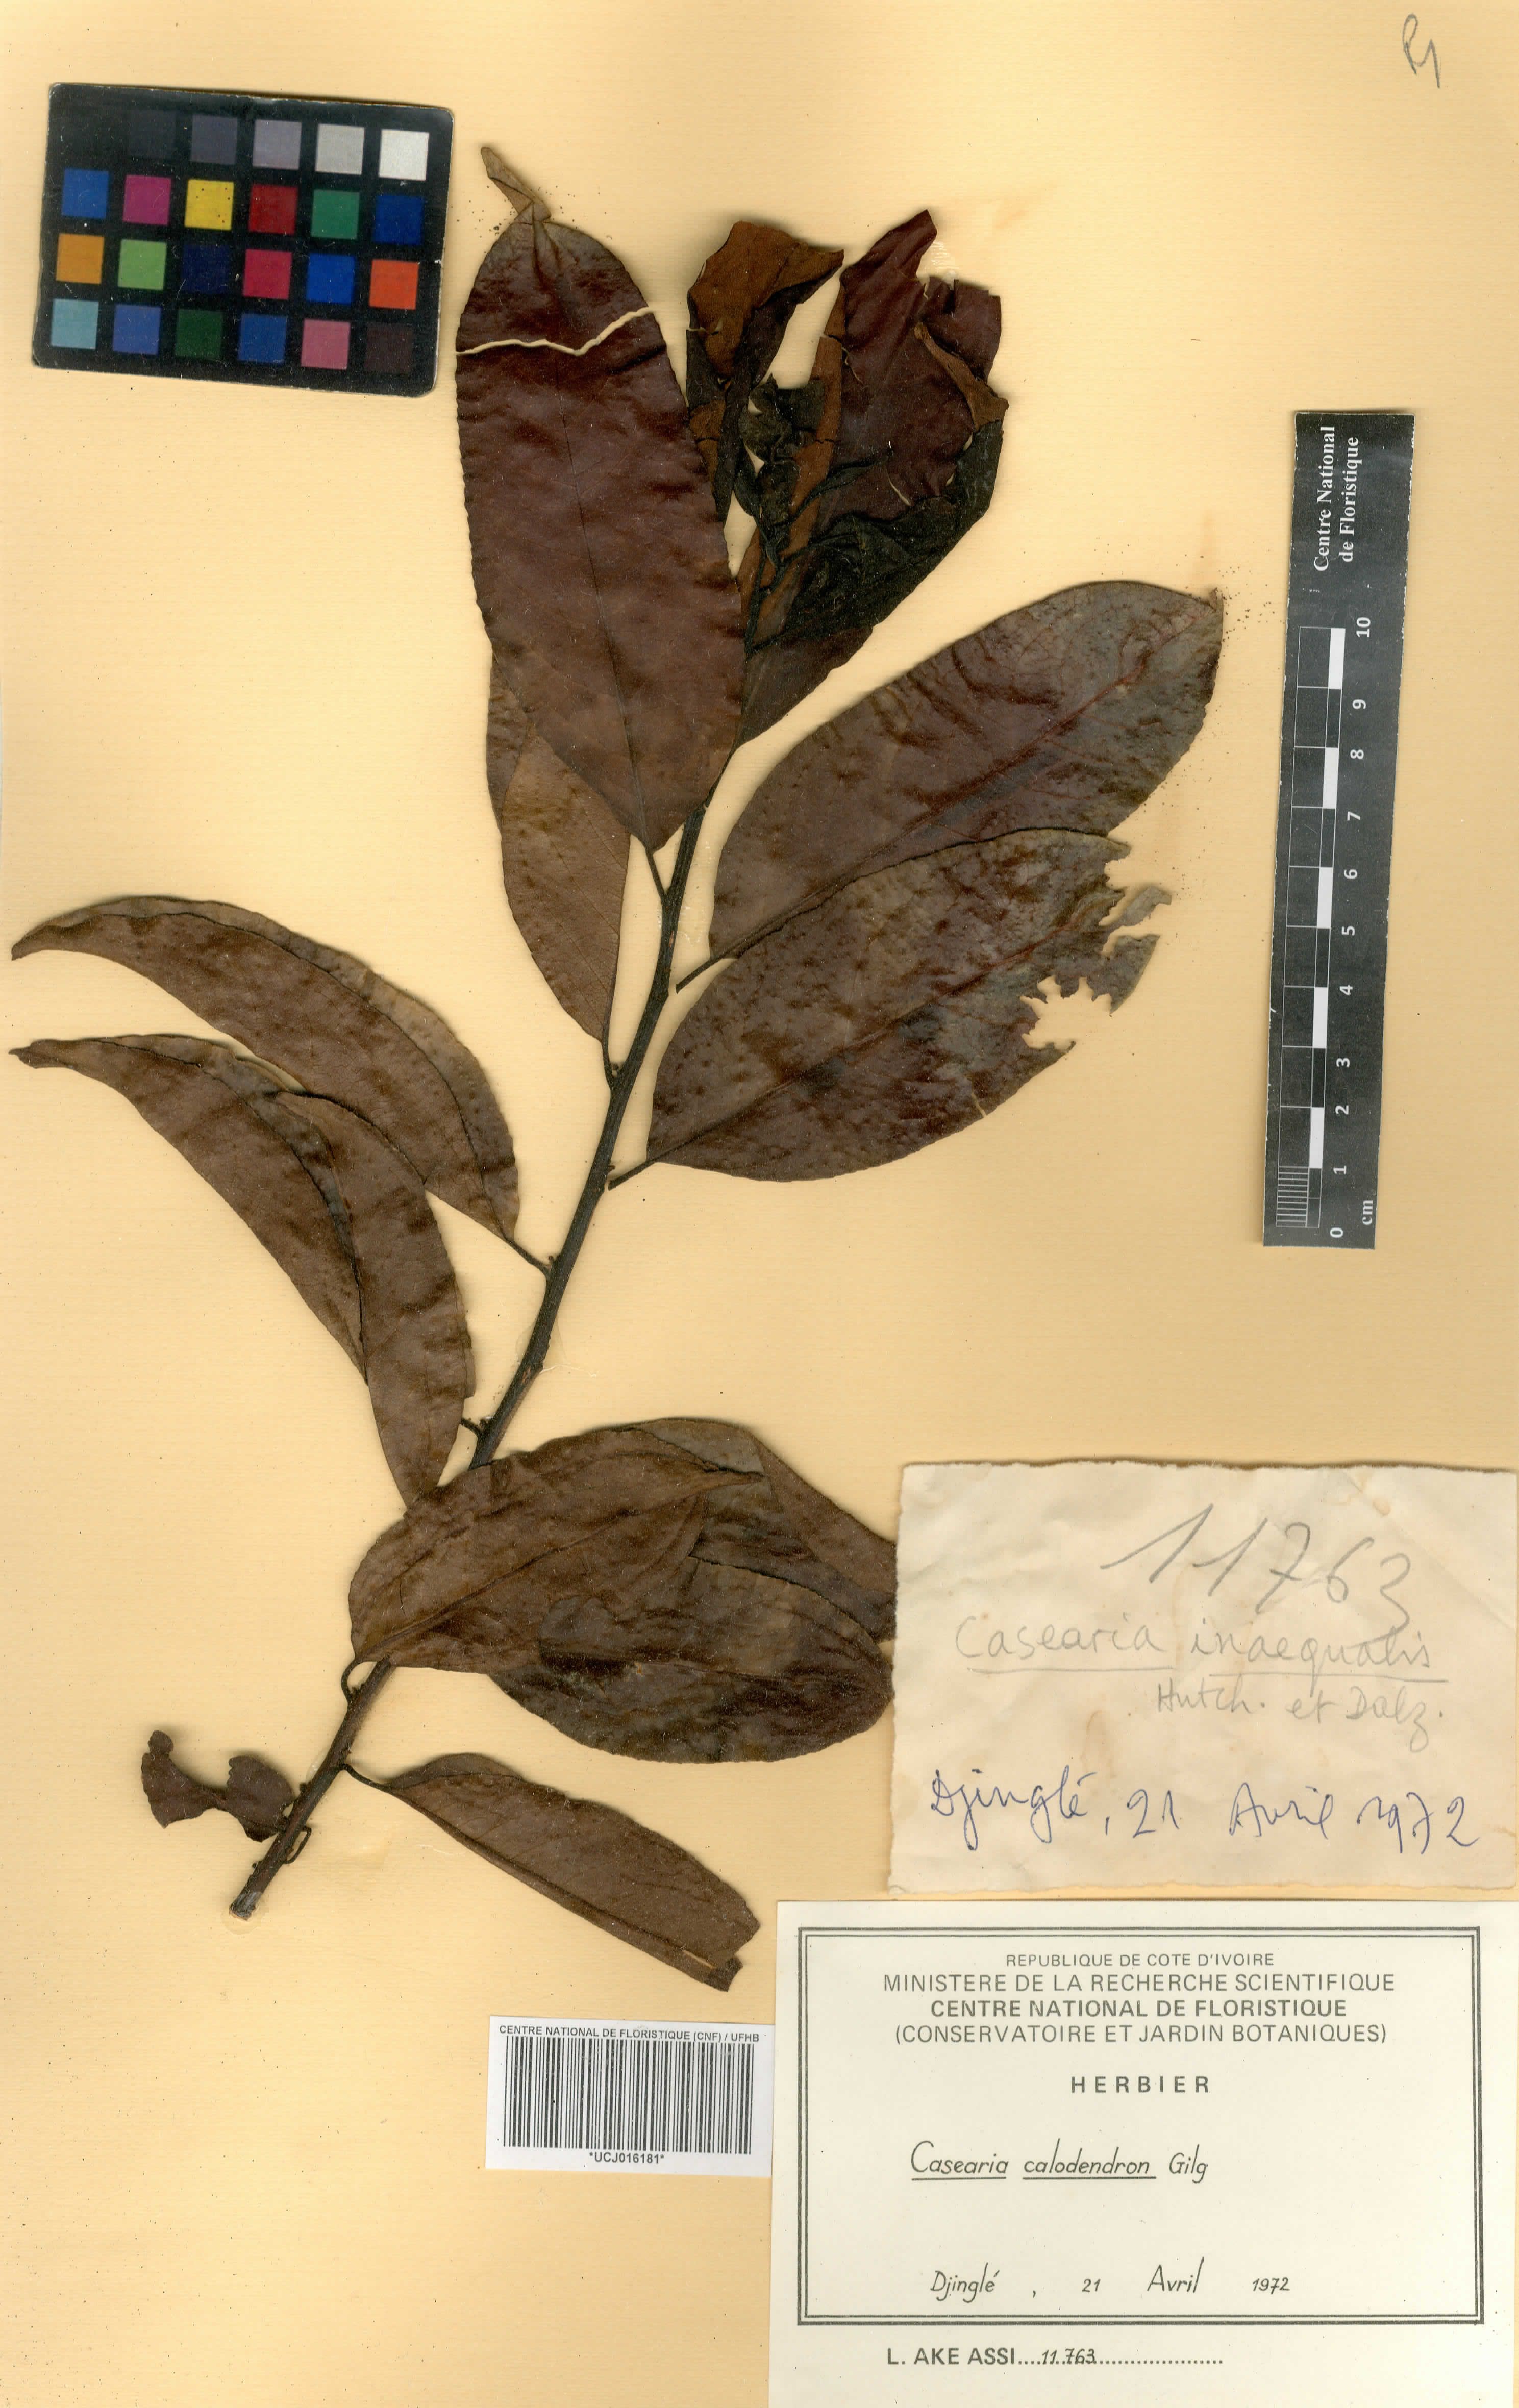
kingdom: Plantae
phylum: Tracheophyta
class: Magnoliopsida
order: Malpighiales
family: Salicaceae
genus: Casearia
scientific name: Casearia calodendron
